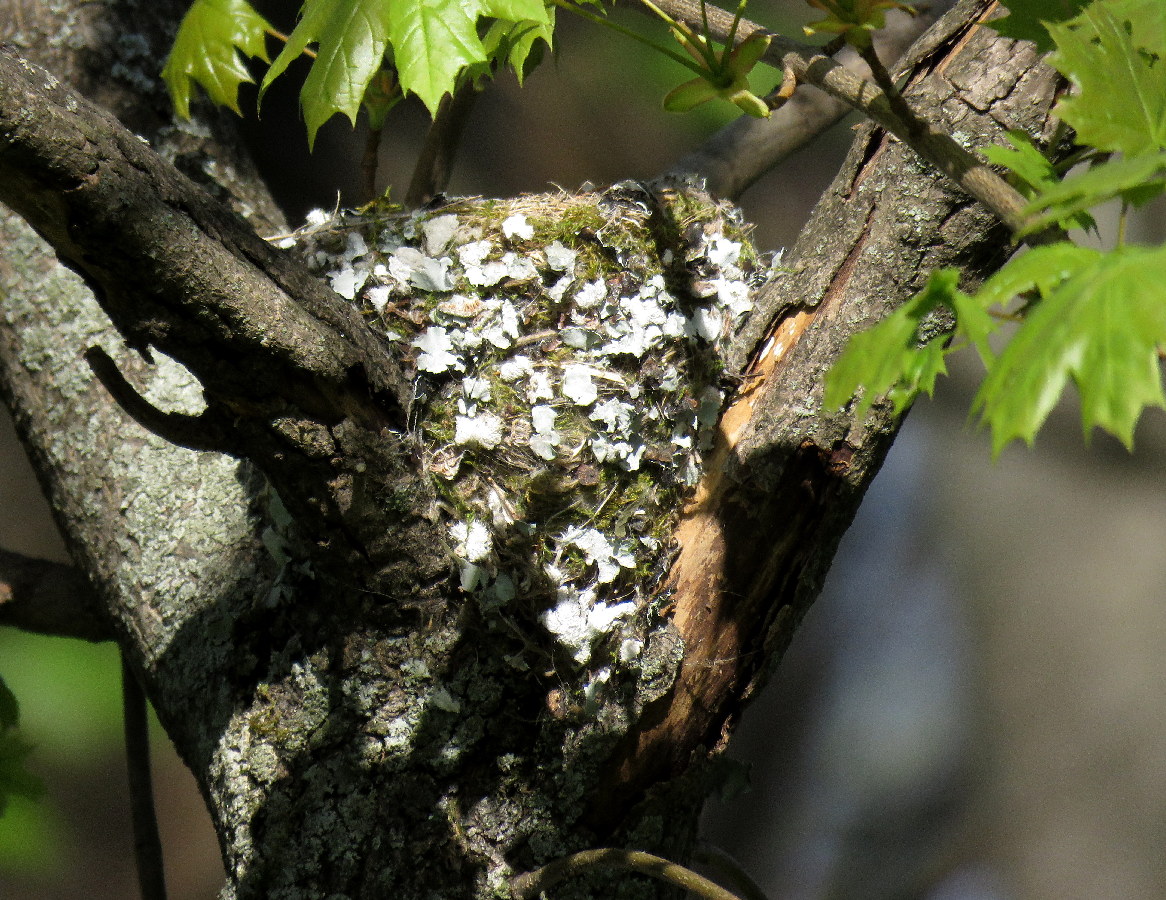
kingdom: Animalia
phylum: Chordata
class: Aves
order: Passeriformes
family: Fringillidae
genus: Fringilla
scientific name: Fringilla coelebs
